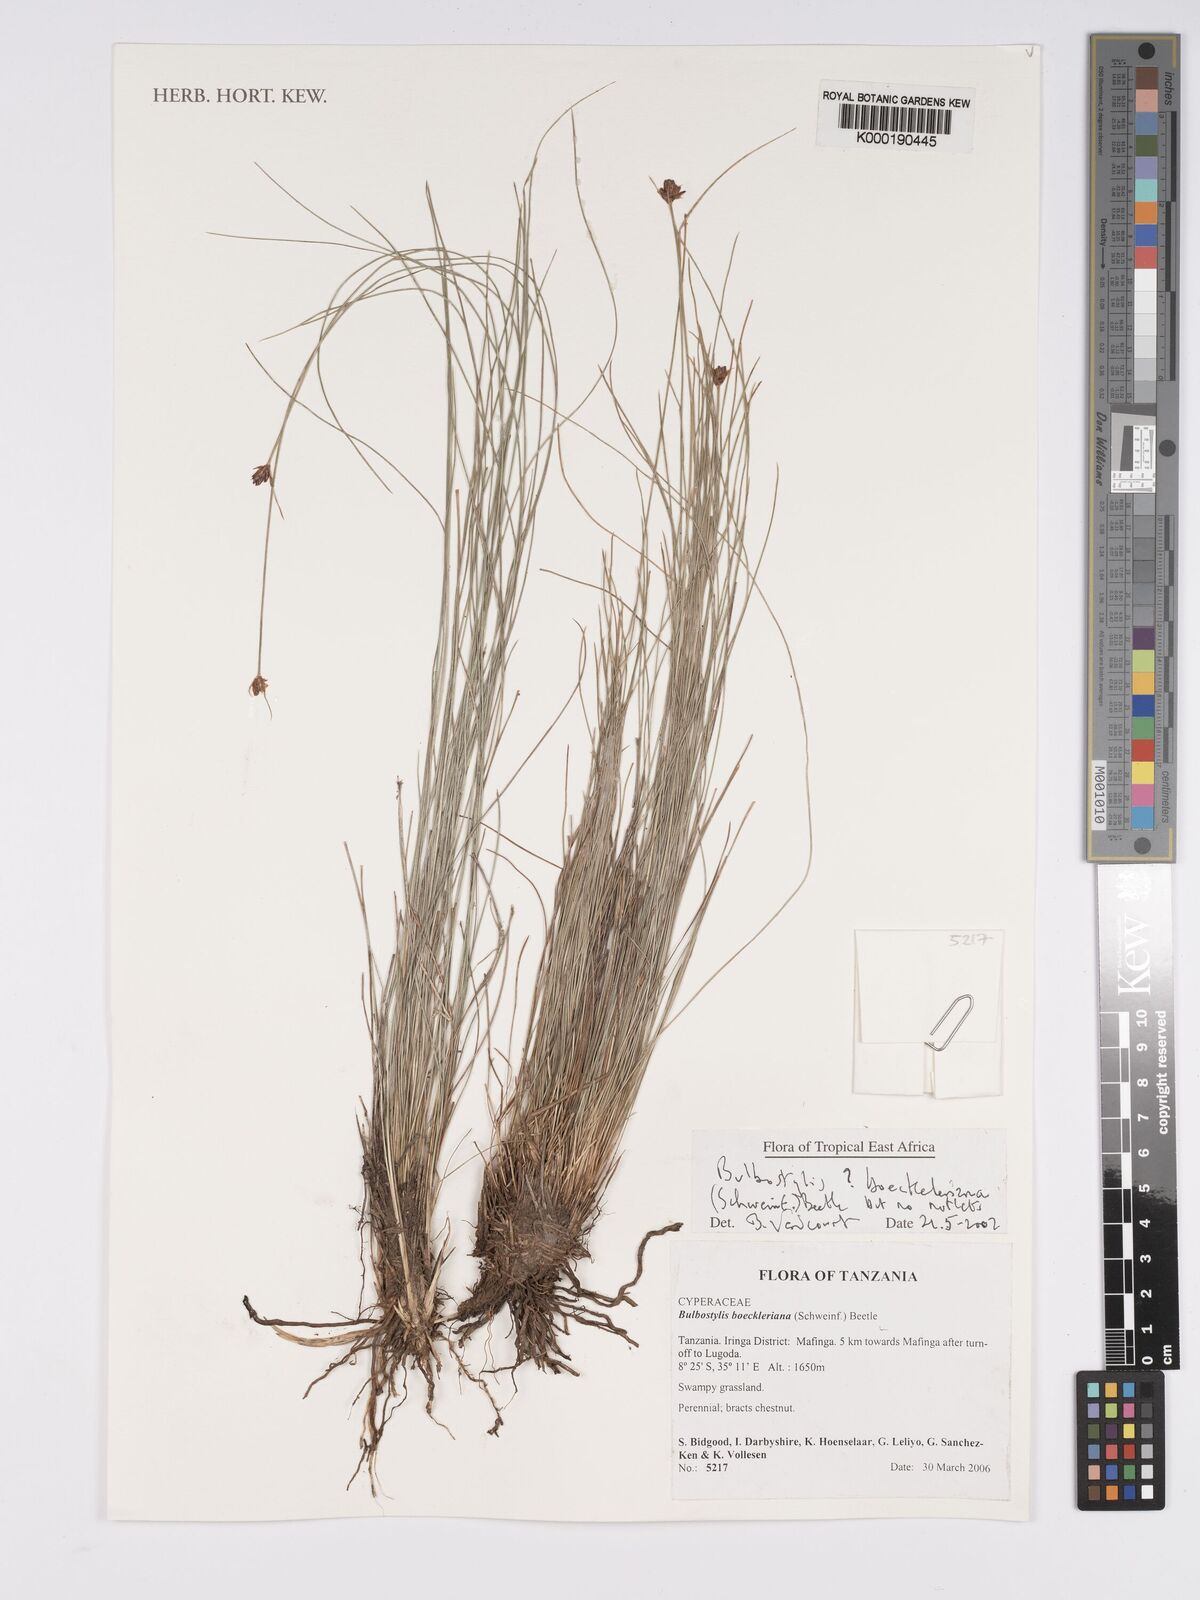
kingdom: Plantae
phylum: Tracheophyta
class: Liliopsida
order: Poales
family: Cyperaceae
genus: Bulbostylis
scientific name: Bulbostylis boeckeleriana
